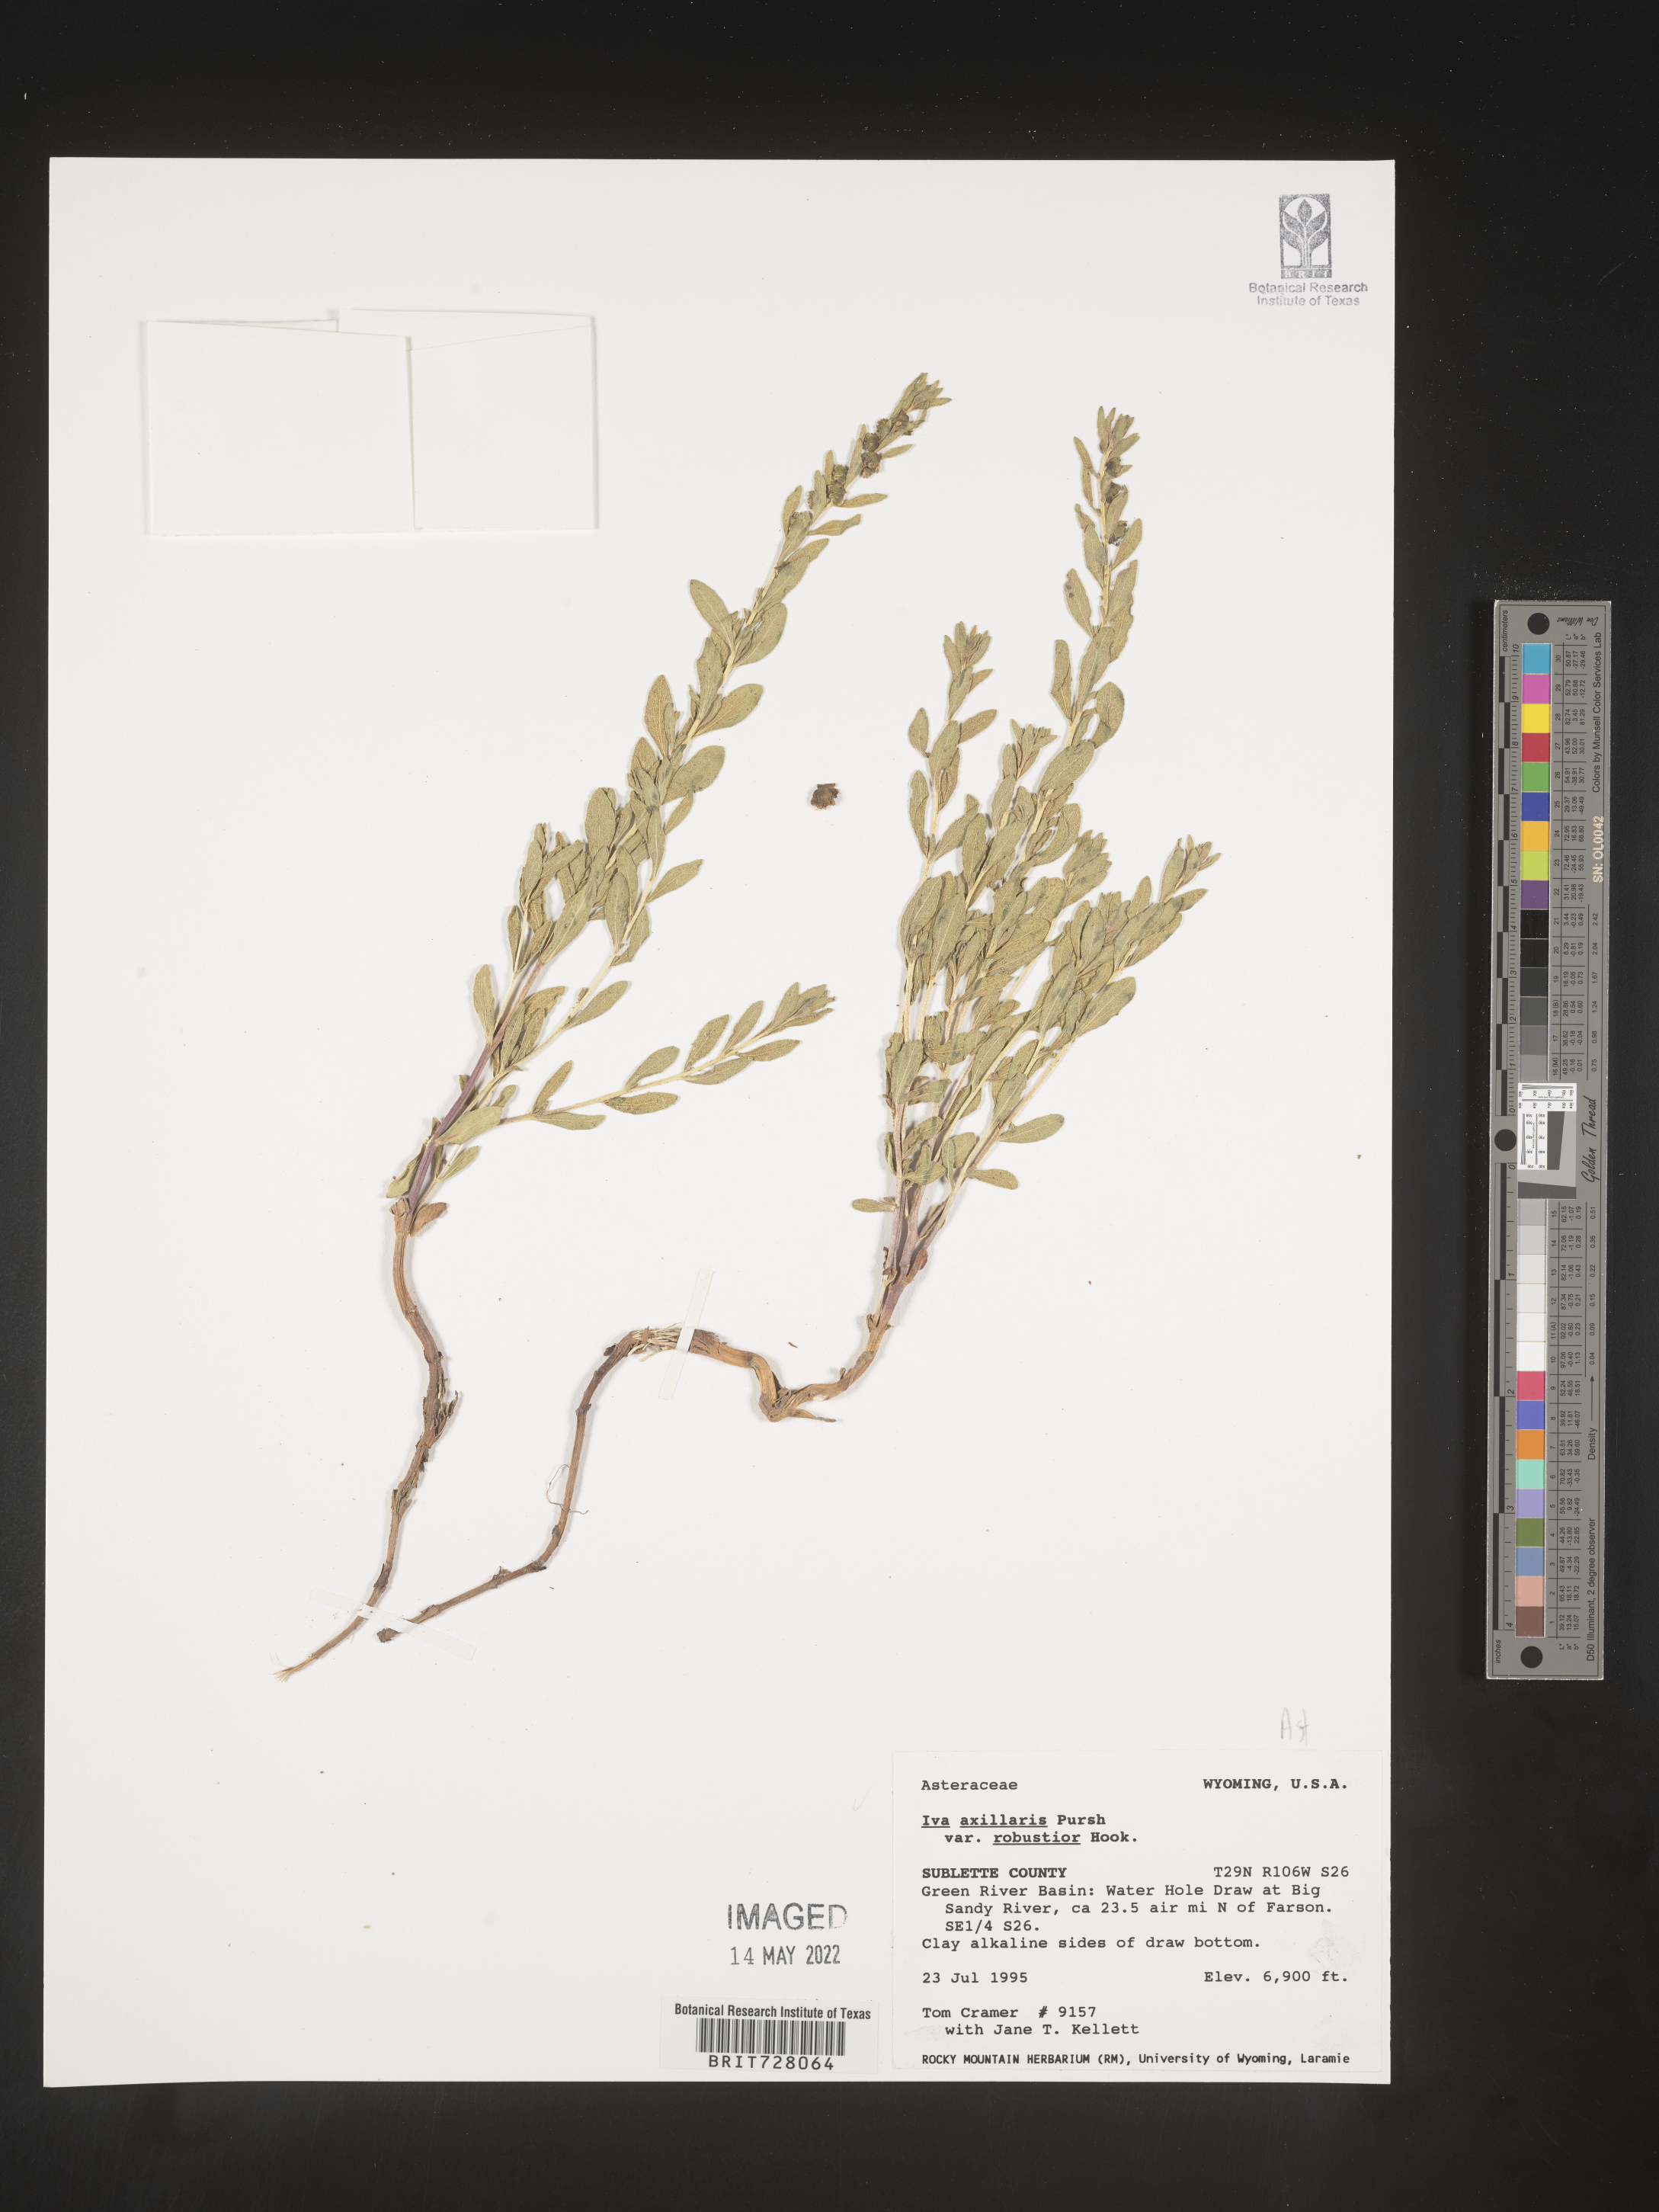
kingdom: Plantae
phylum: Tracheophyta
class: Magnoliopsida
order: Asterales
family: Asteraceae
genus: Iva
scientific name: Iva axillaris
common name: Poverty sumpweed
